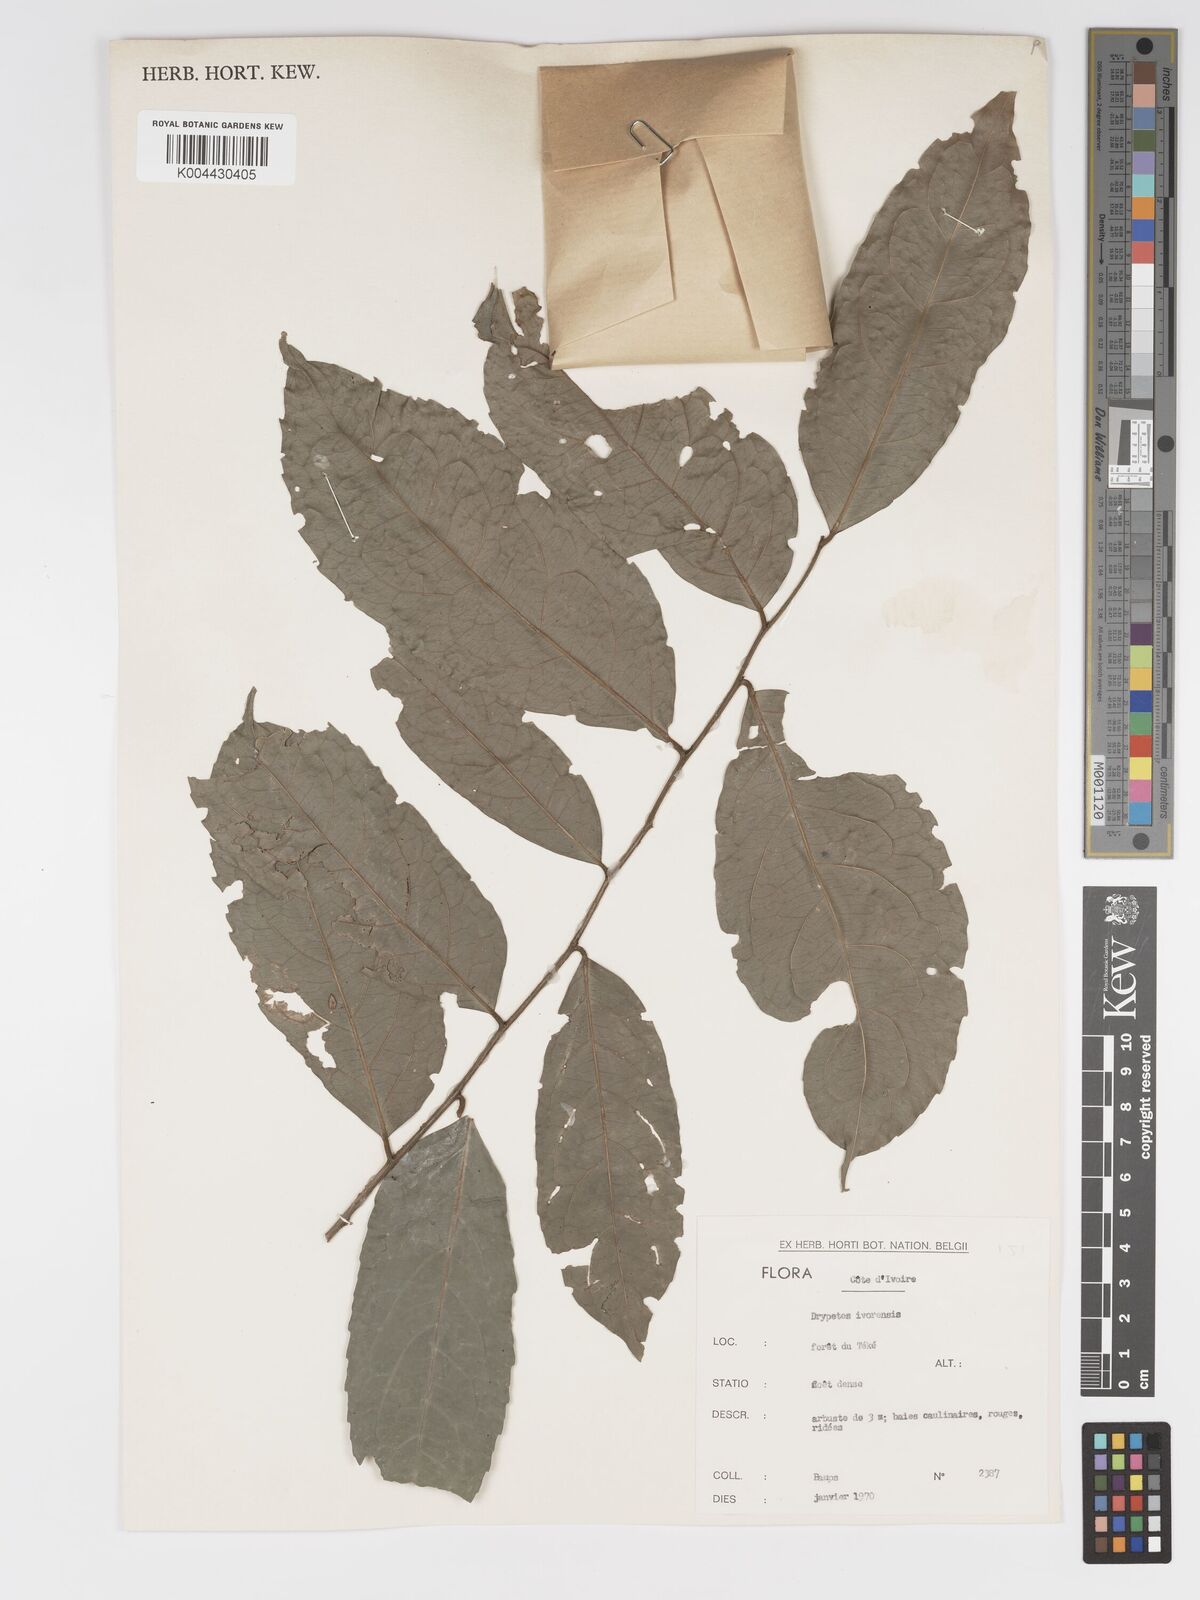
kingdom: Plantae
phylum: Tracheophyta
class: Magnoliopsida
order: Malpighiales
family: Putranjivaceae
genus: Drypetes
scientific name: Drypetes ivorensis
